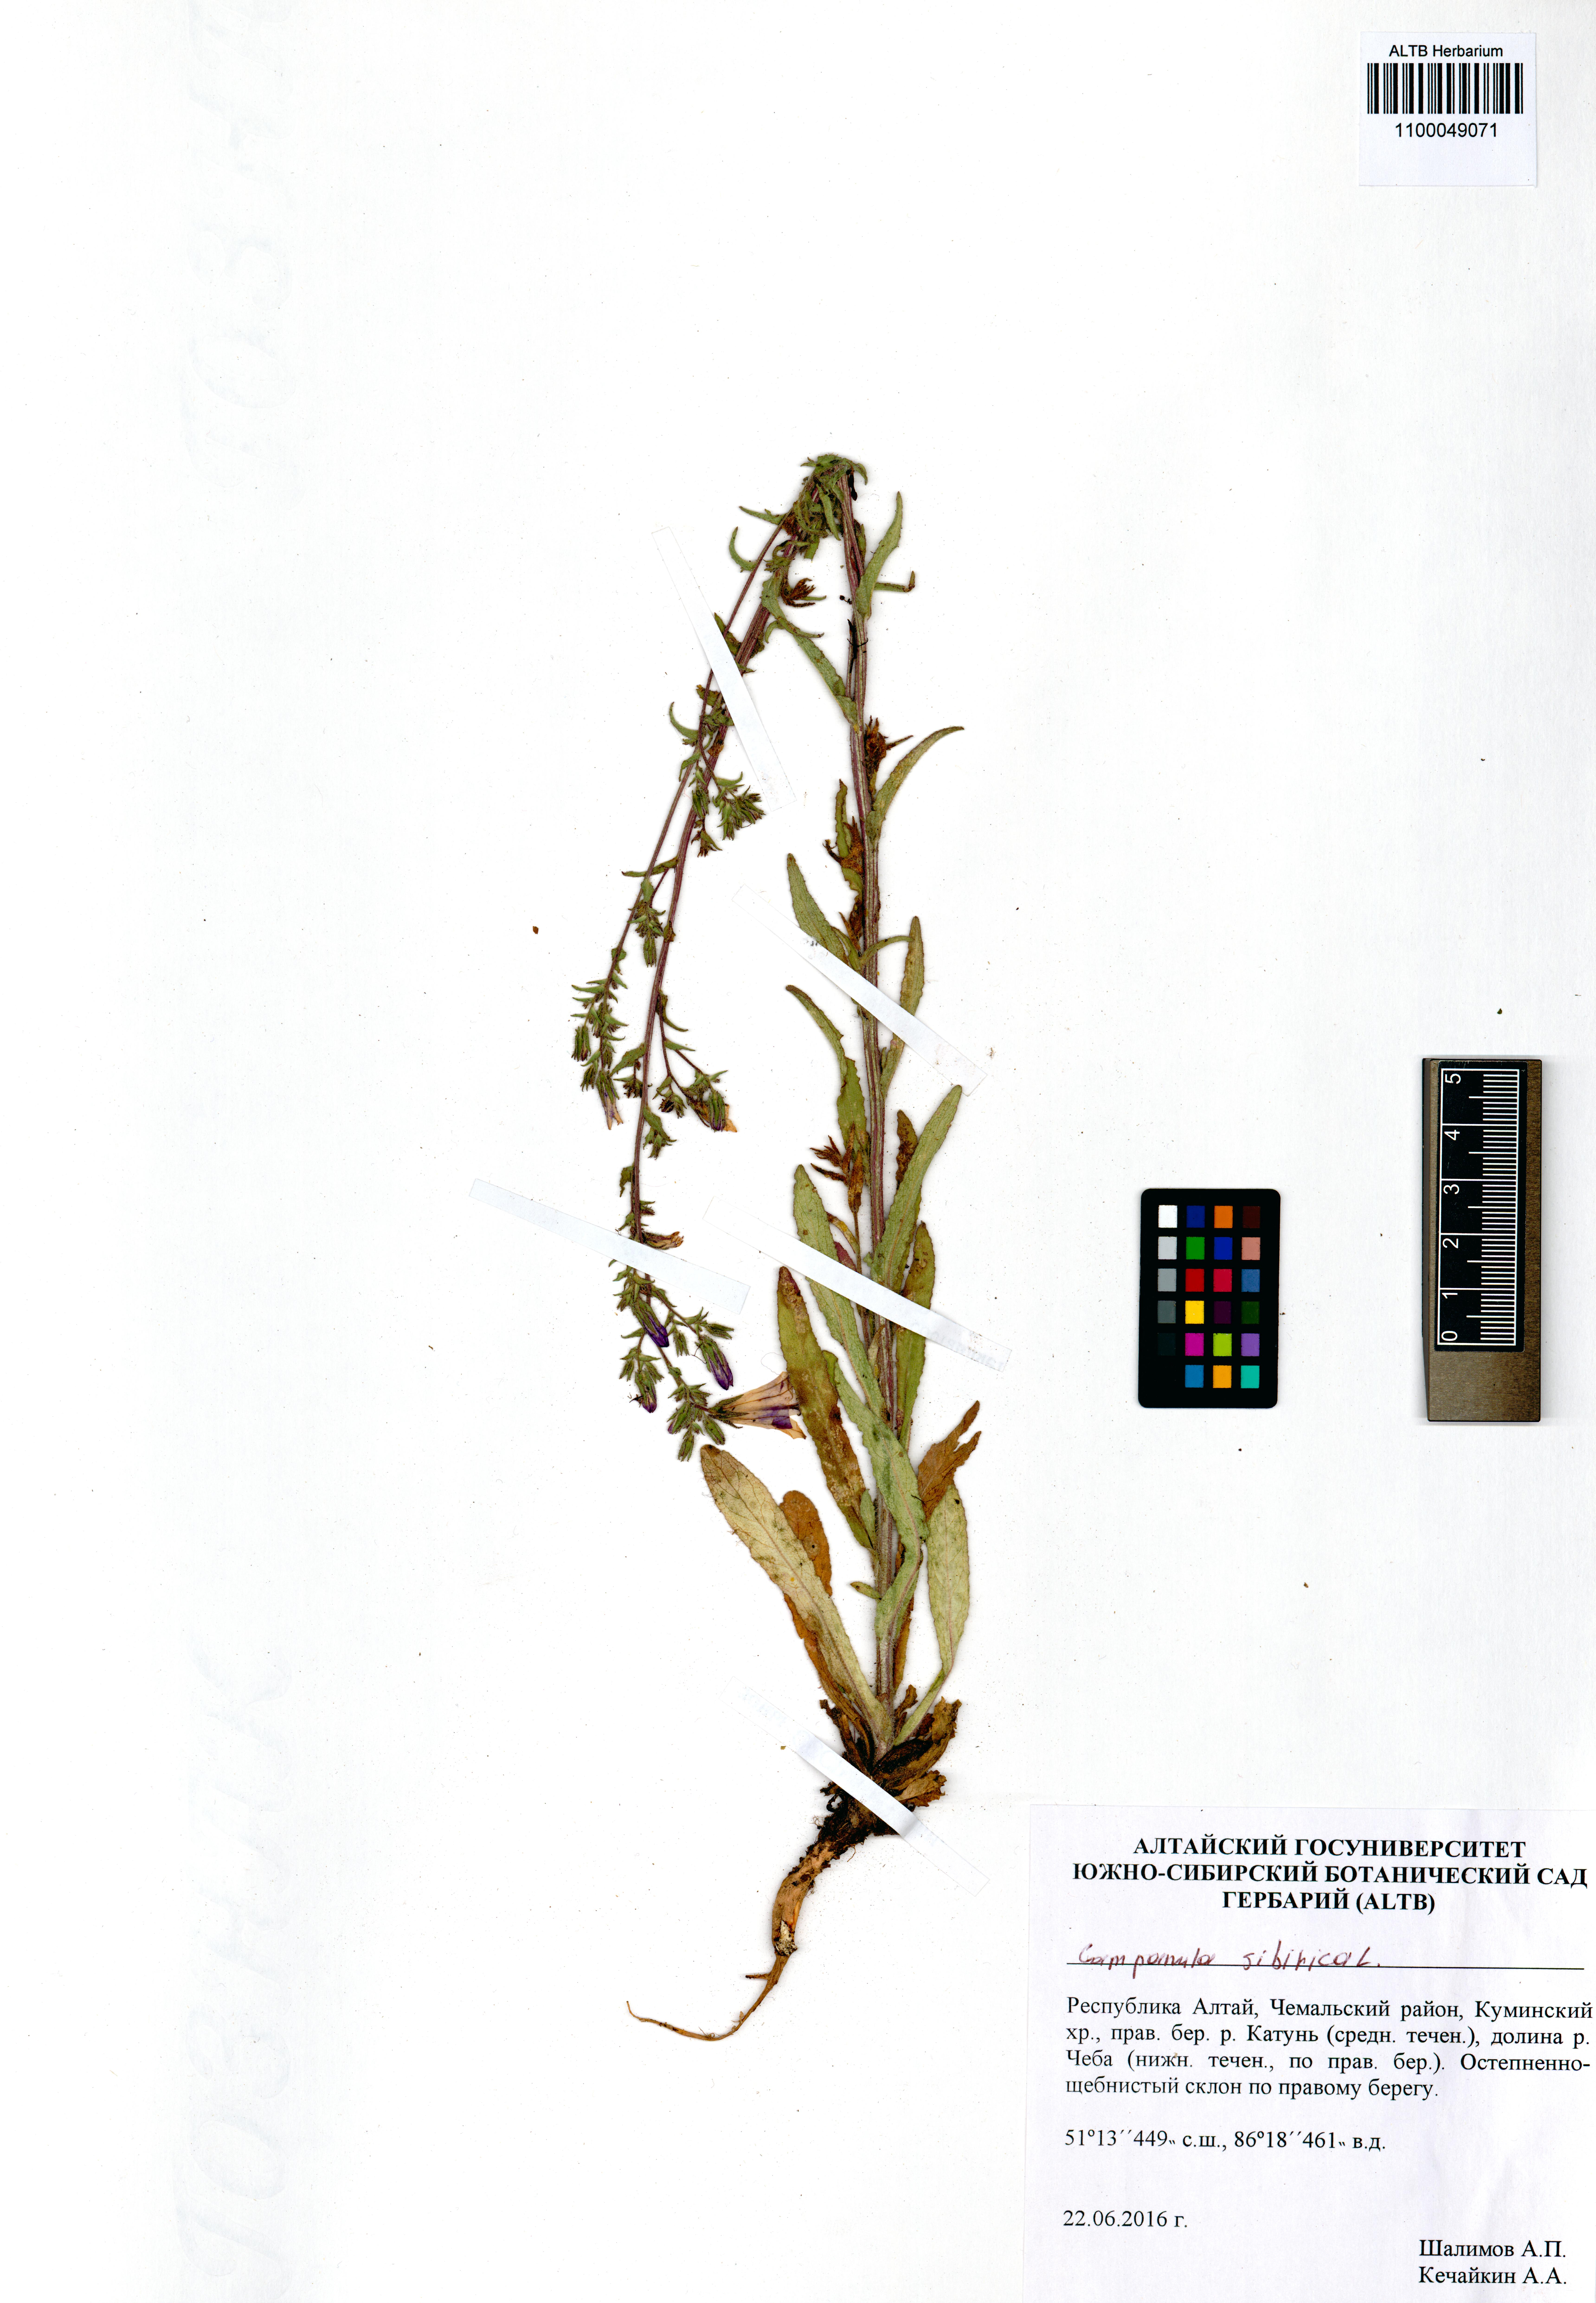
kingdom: Plantae
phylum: Tracheophyta
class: Magnoliopsida
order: Asterales
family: Campanulaceae
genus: Campanula
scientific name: Campanula sibirica
